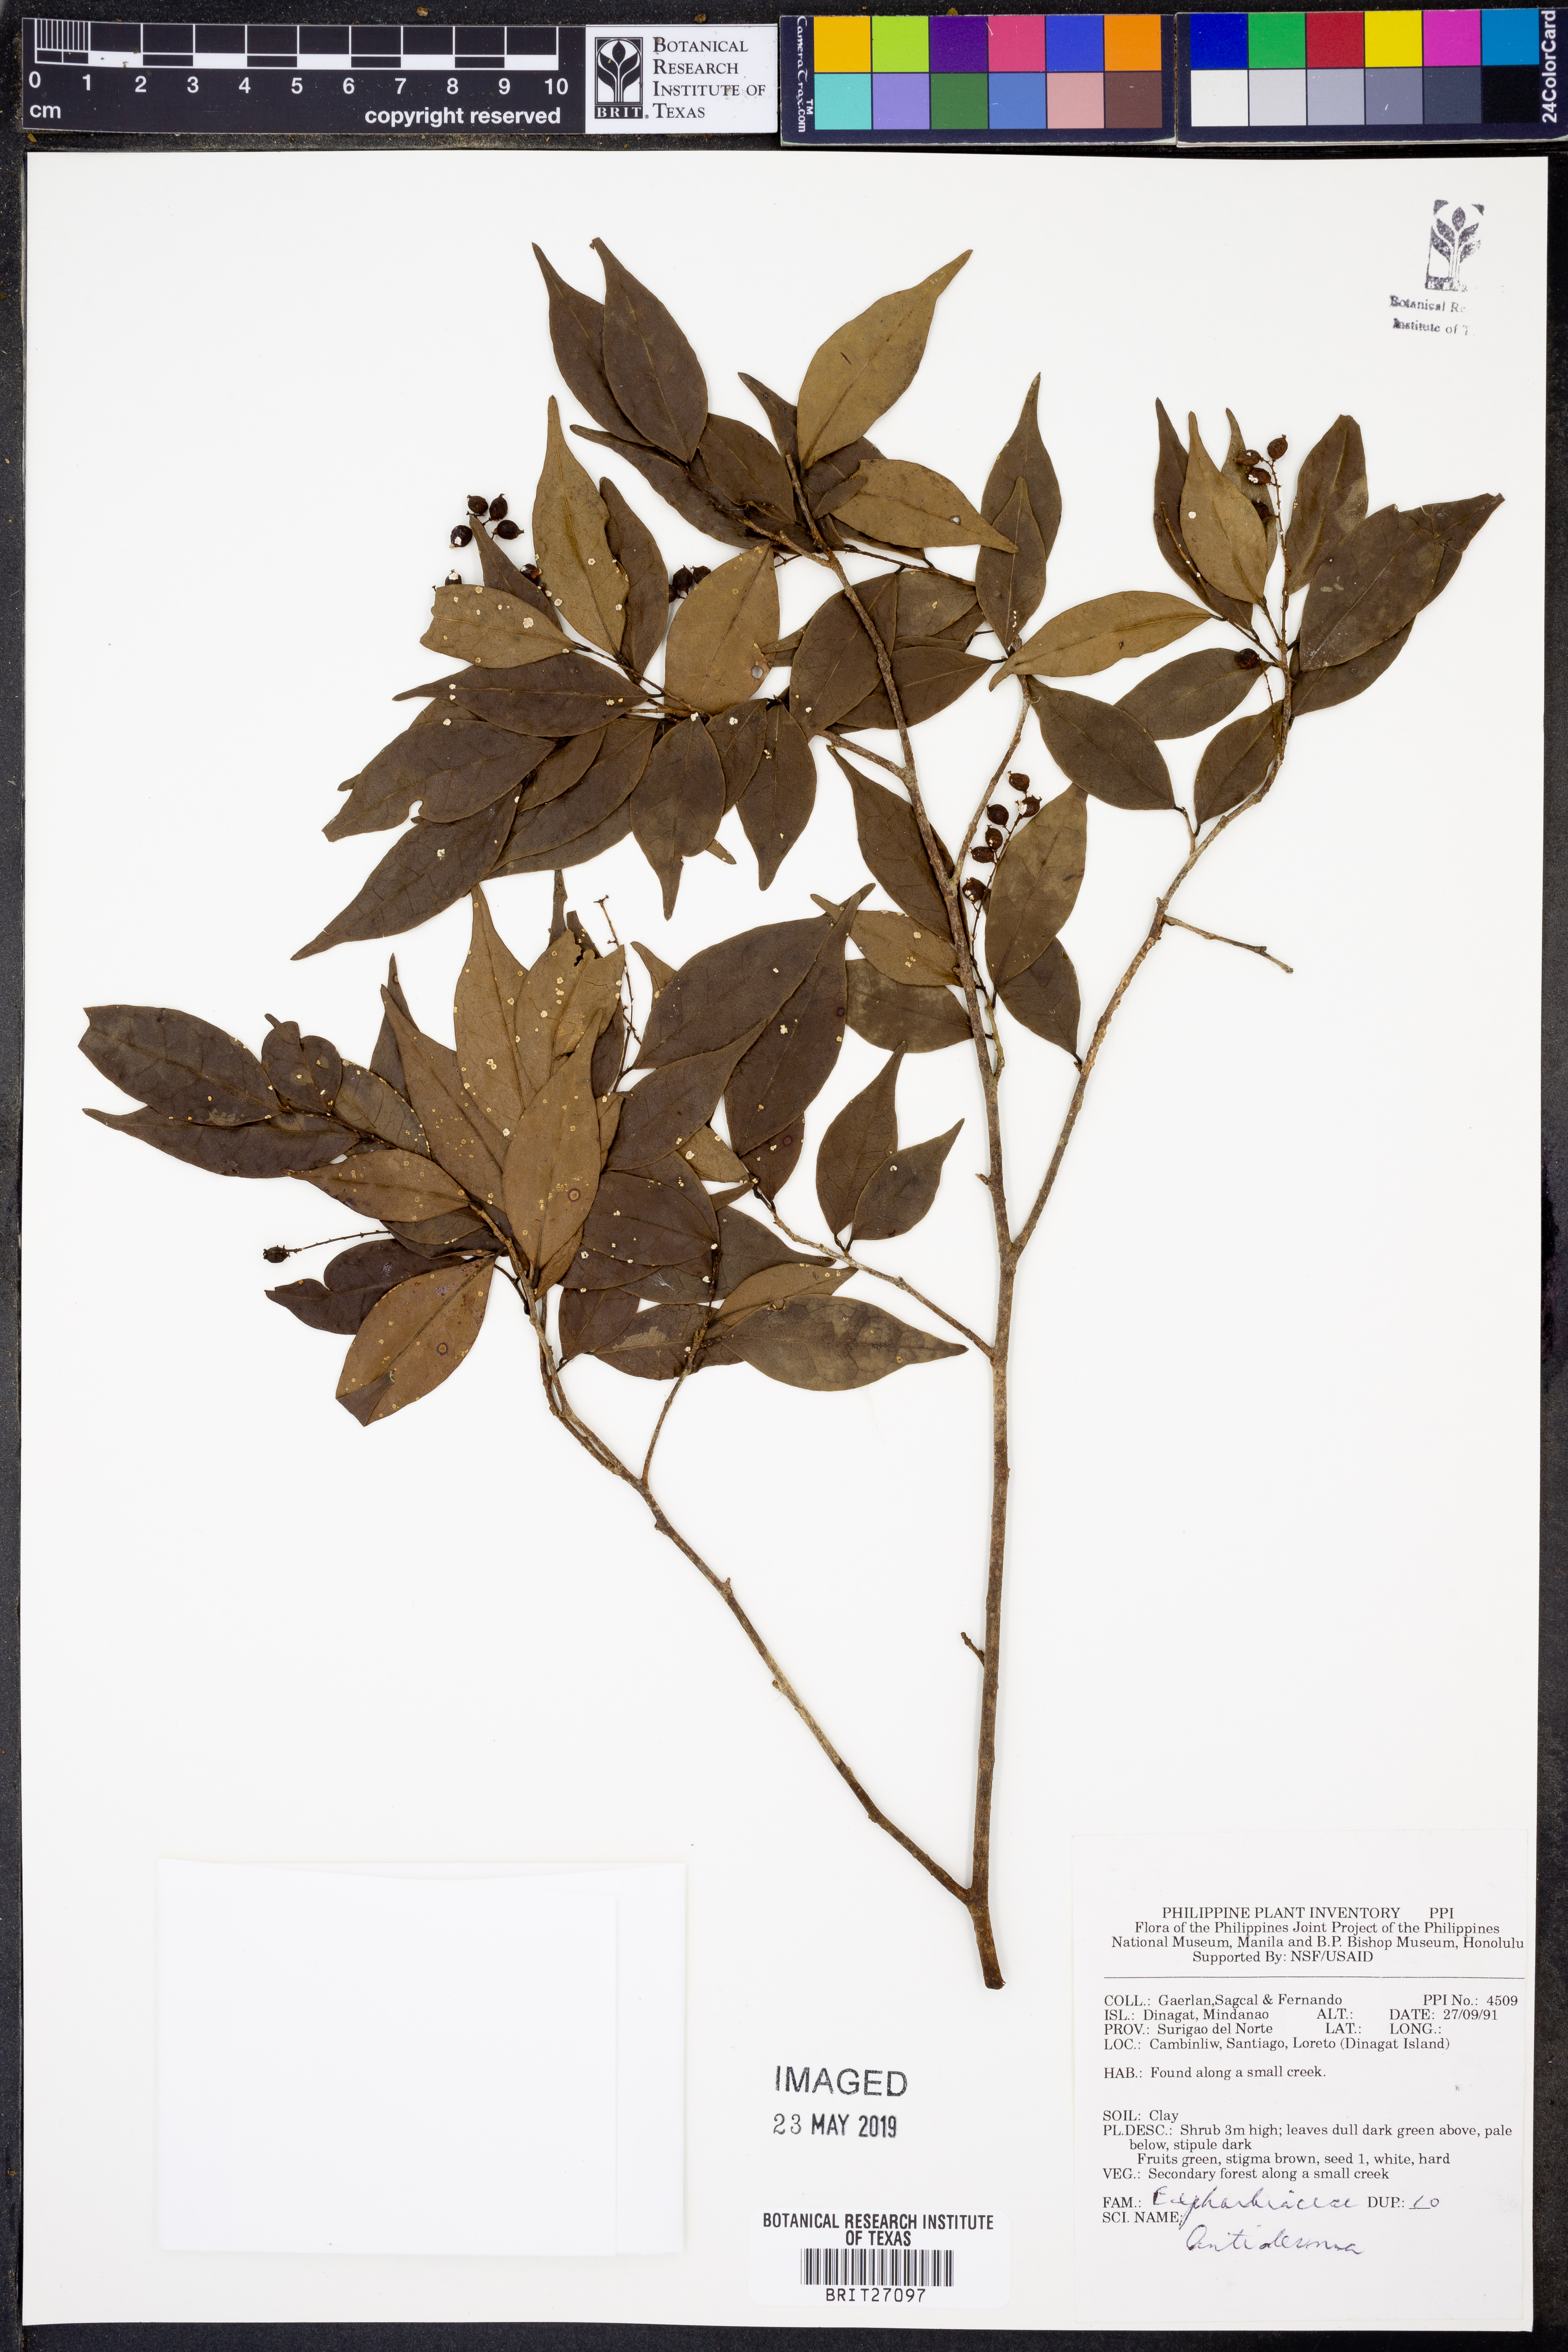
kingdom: Plantae
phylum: Tracheophyta
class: Magnoliopsida
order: Malpighiales
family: Phyllanthaceae
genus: Antidesma
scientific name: Antidesma
